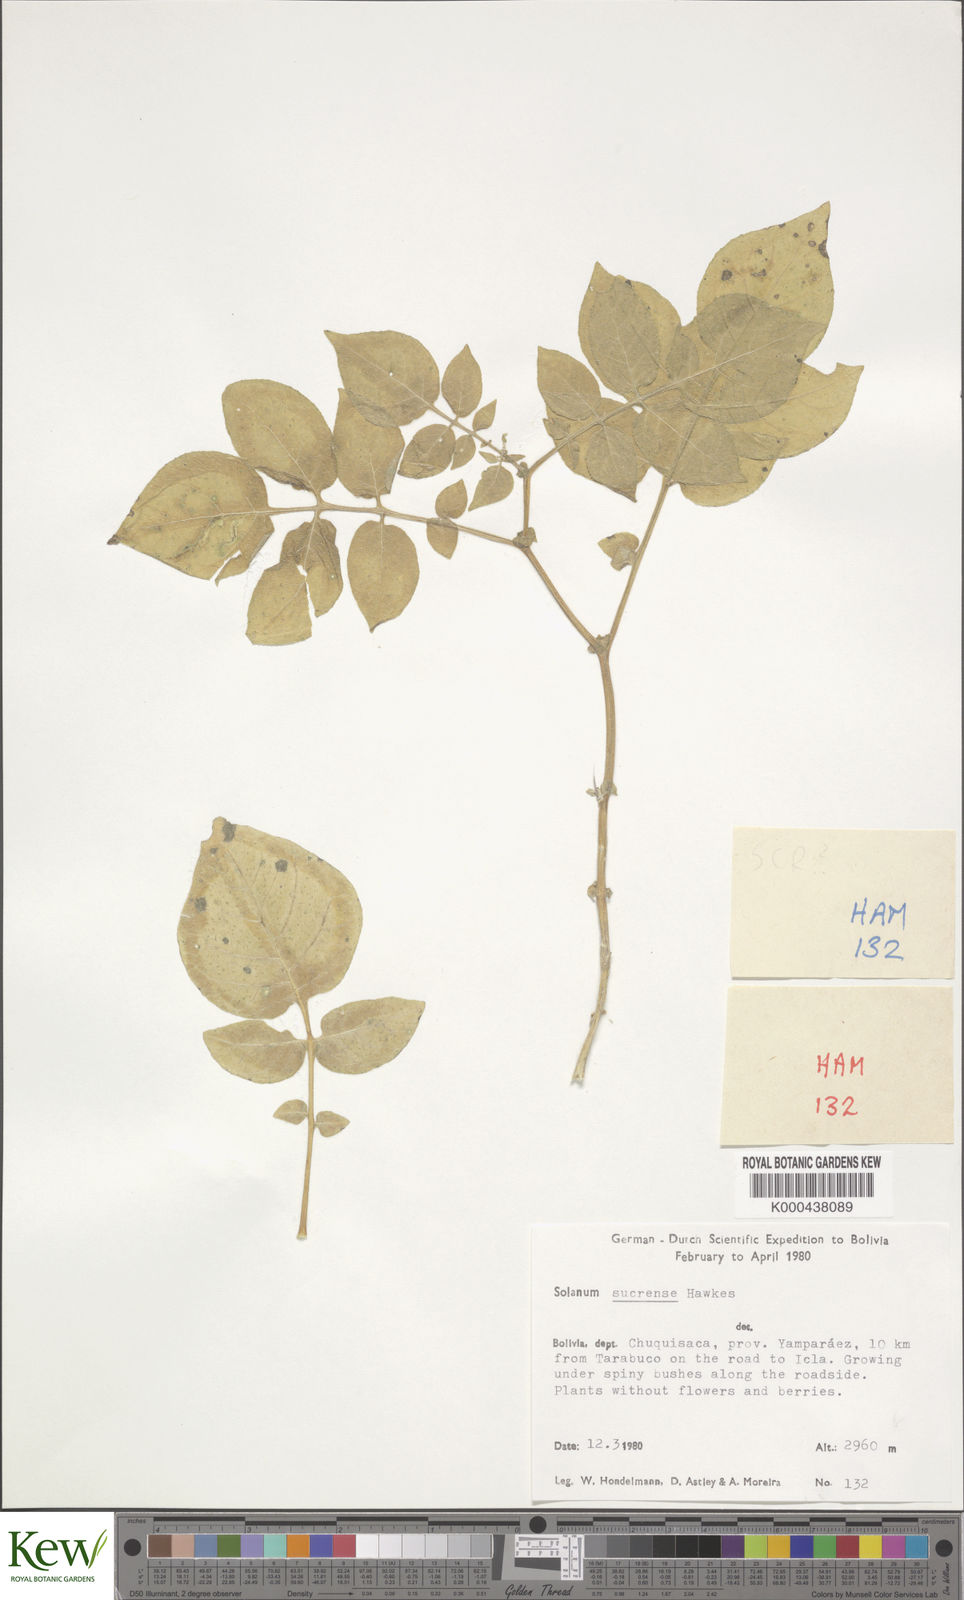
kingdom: Plantae
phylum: Tracheophyta
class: Magnoliopsida
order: Solanales
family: Solanaceae
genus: Solanum
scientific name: Solanum brevicaule
